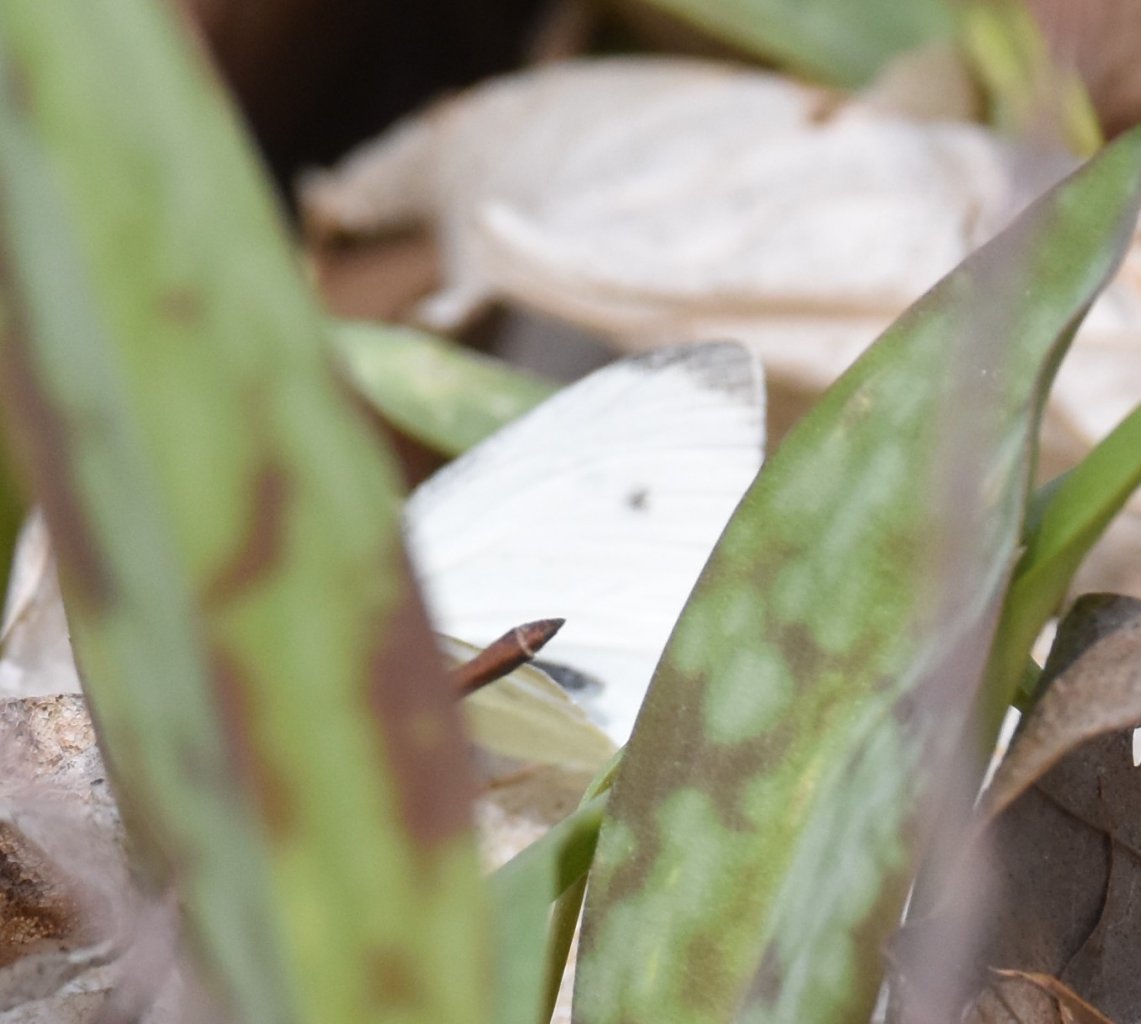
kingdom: Animalia
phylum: Arthropoda
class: Insecta
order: Lepidoptera
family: Pieridae
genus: Pieris
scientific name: Pieris rapae
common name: Cabbage White
